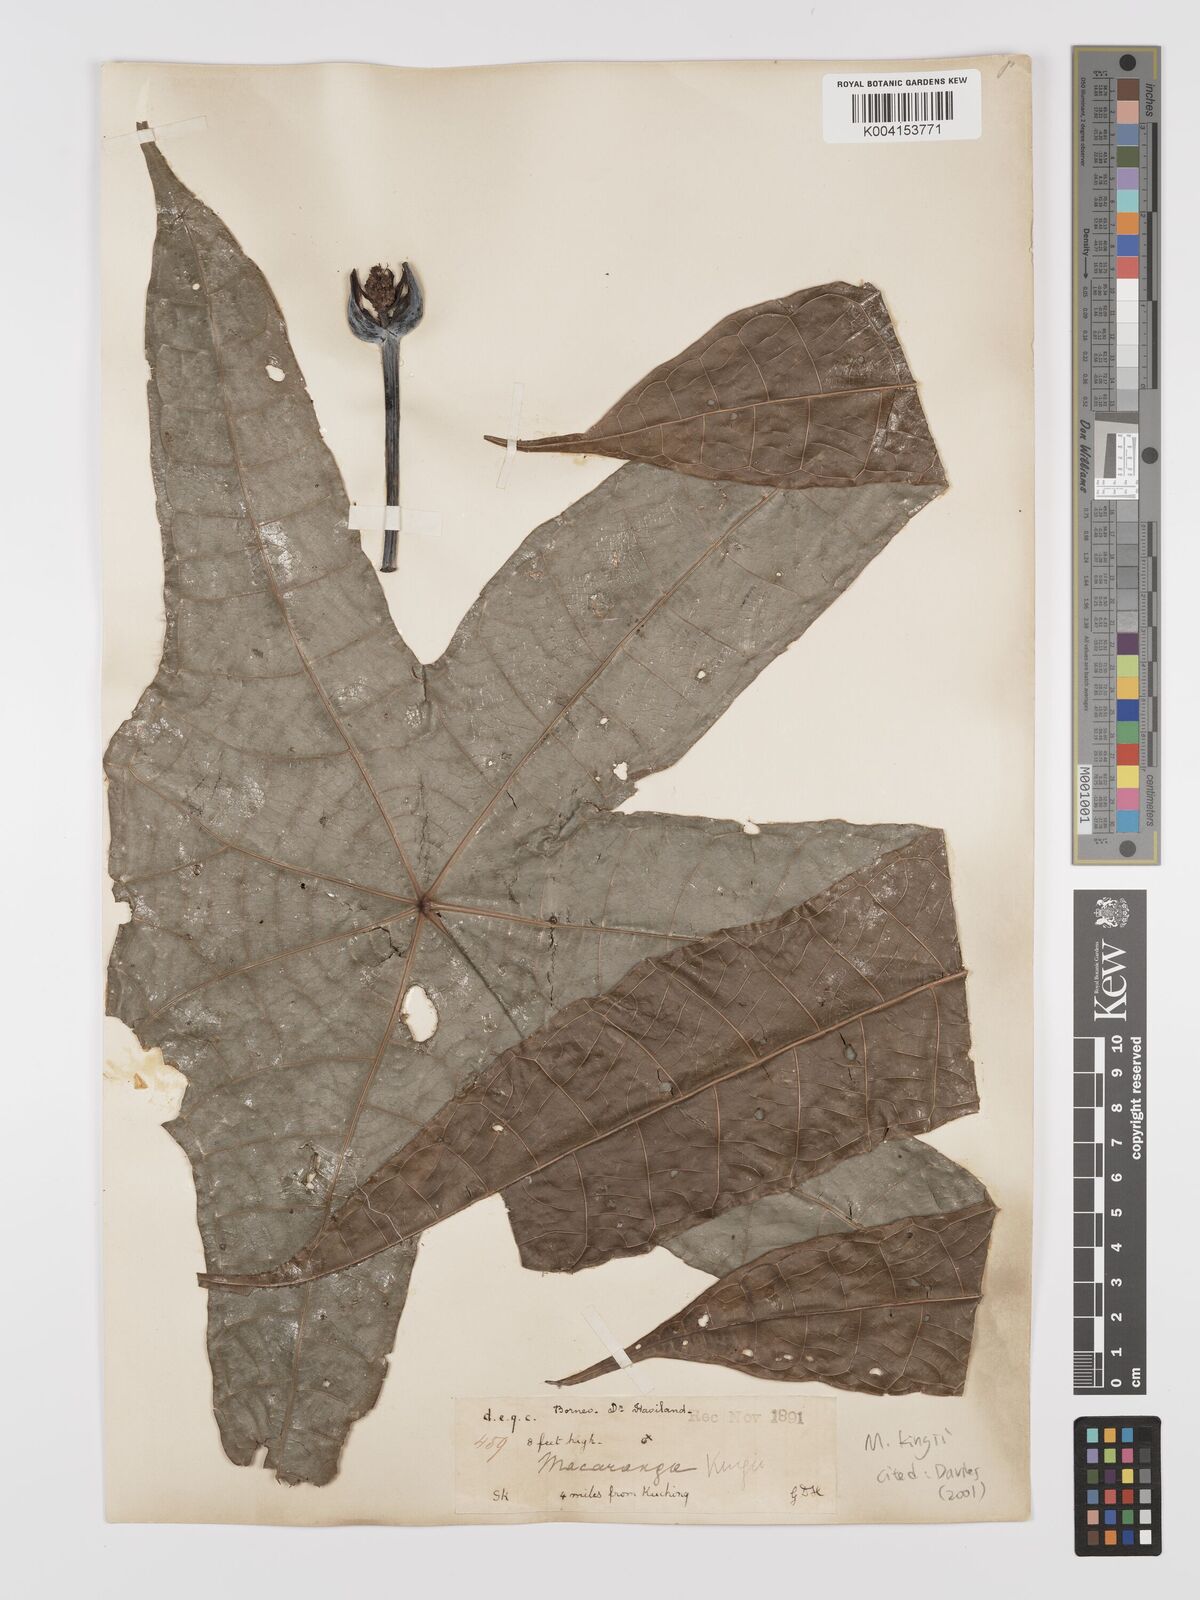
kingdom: Plantae
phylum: Tracheophyta
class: Magnoliopsida
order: Malpighiales
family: Euphorbiaceae
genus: Macaranga
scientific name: Macaranga kingii
